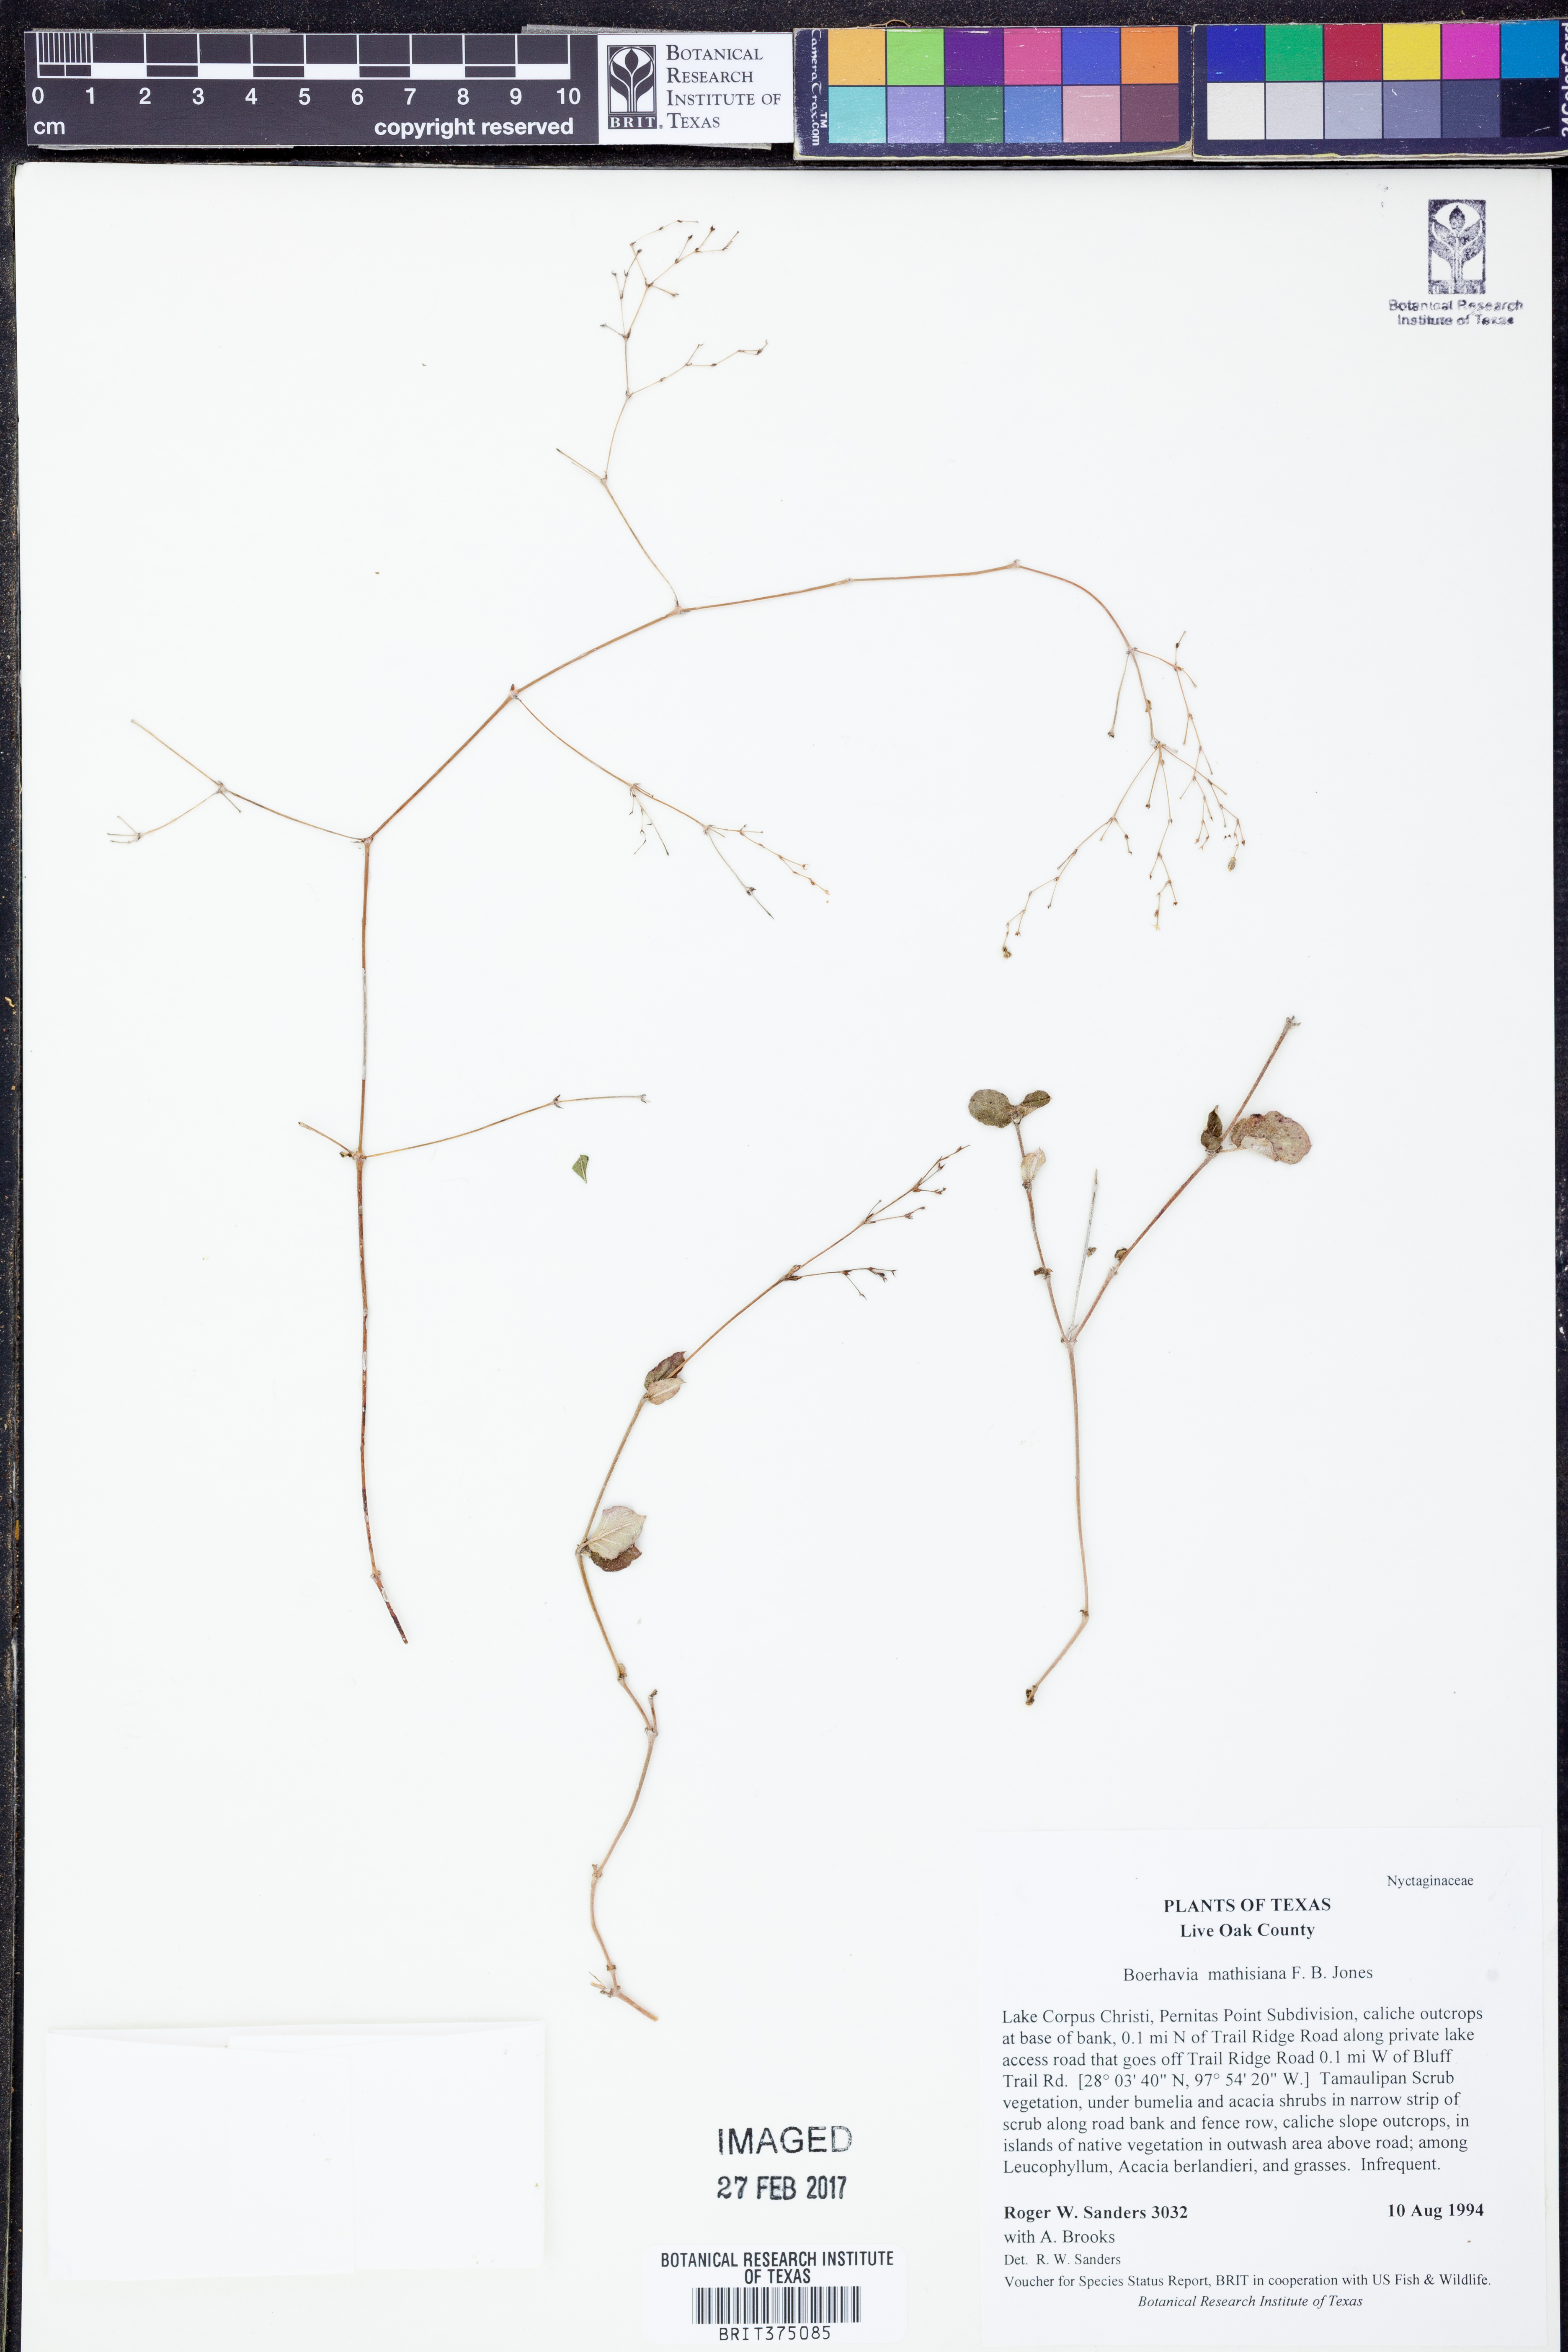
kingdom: Plantae
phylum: Tracheophyta
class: Magnoliopsida
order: Caryophyllales
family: Nyctaginaceae
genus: Boerhavia
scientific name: Boerhavia ciliata
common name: Mathis' spiderling
